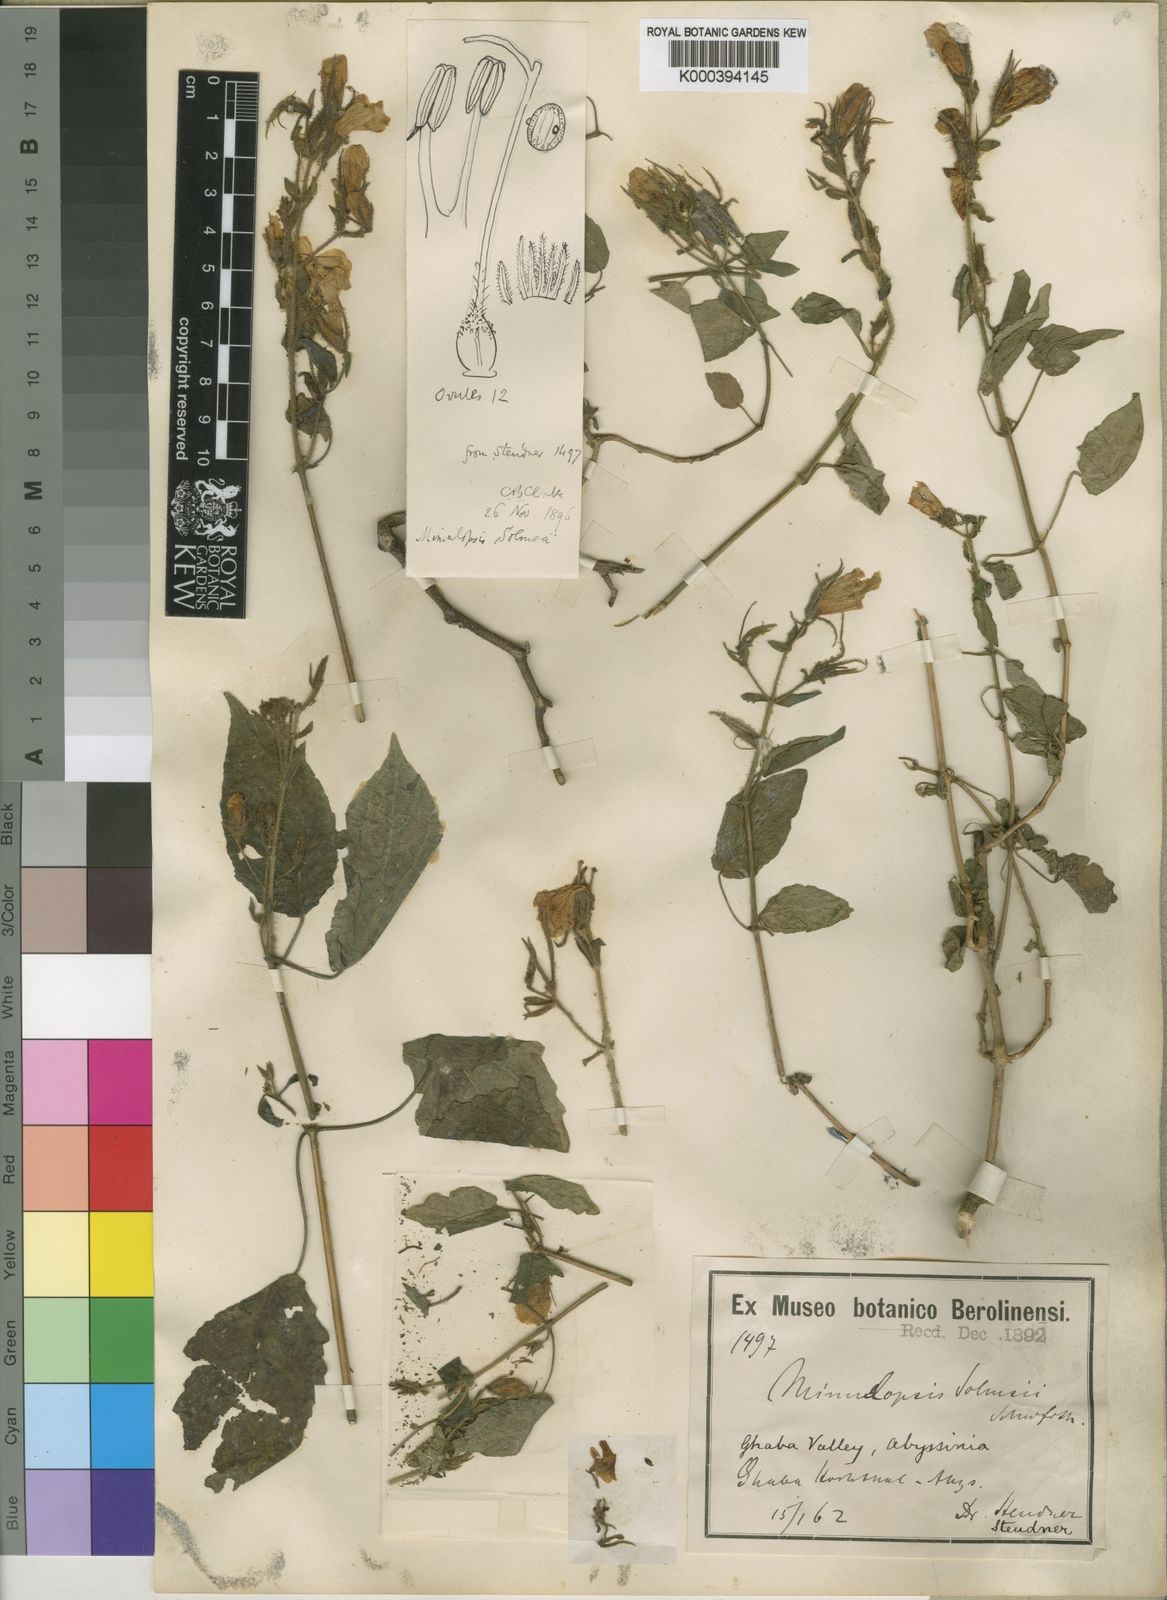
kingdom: Plantae
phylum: Tracheophyta
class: Magnoliopsida
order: Lamiales
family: Acanthaceae
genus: Mimulopsis
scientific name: Mimulopsis solmsii
